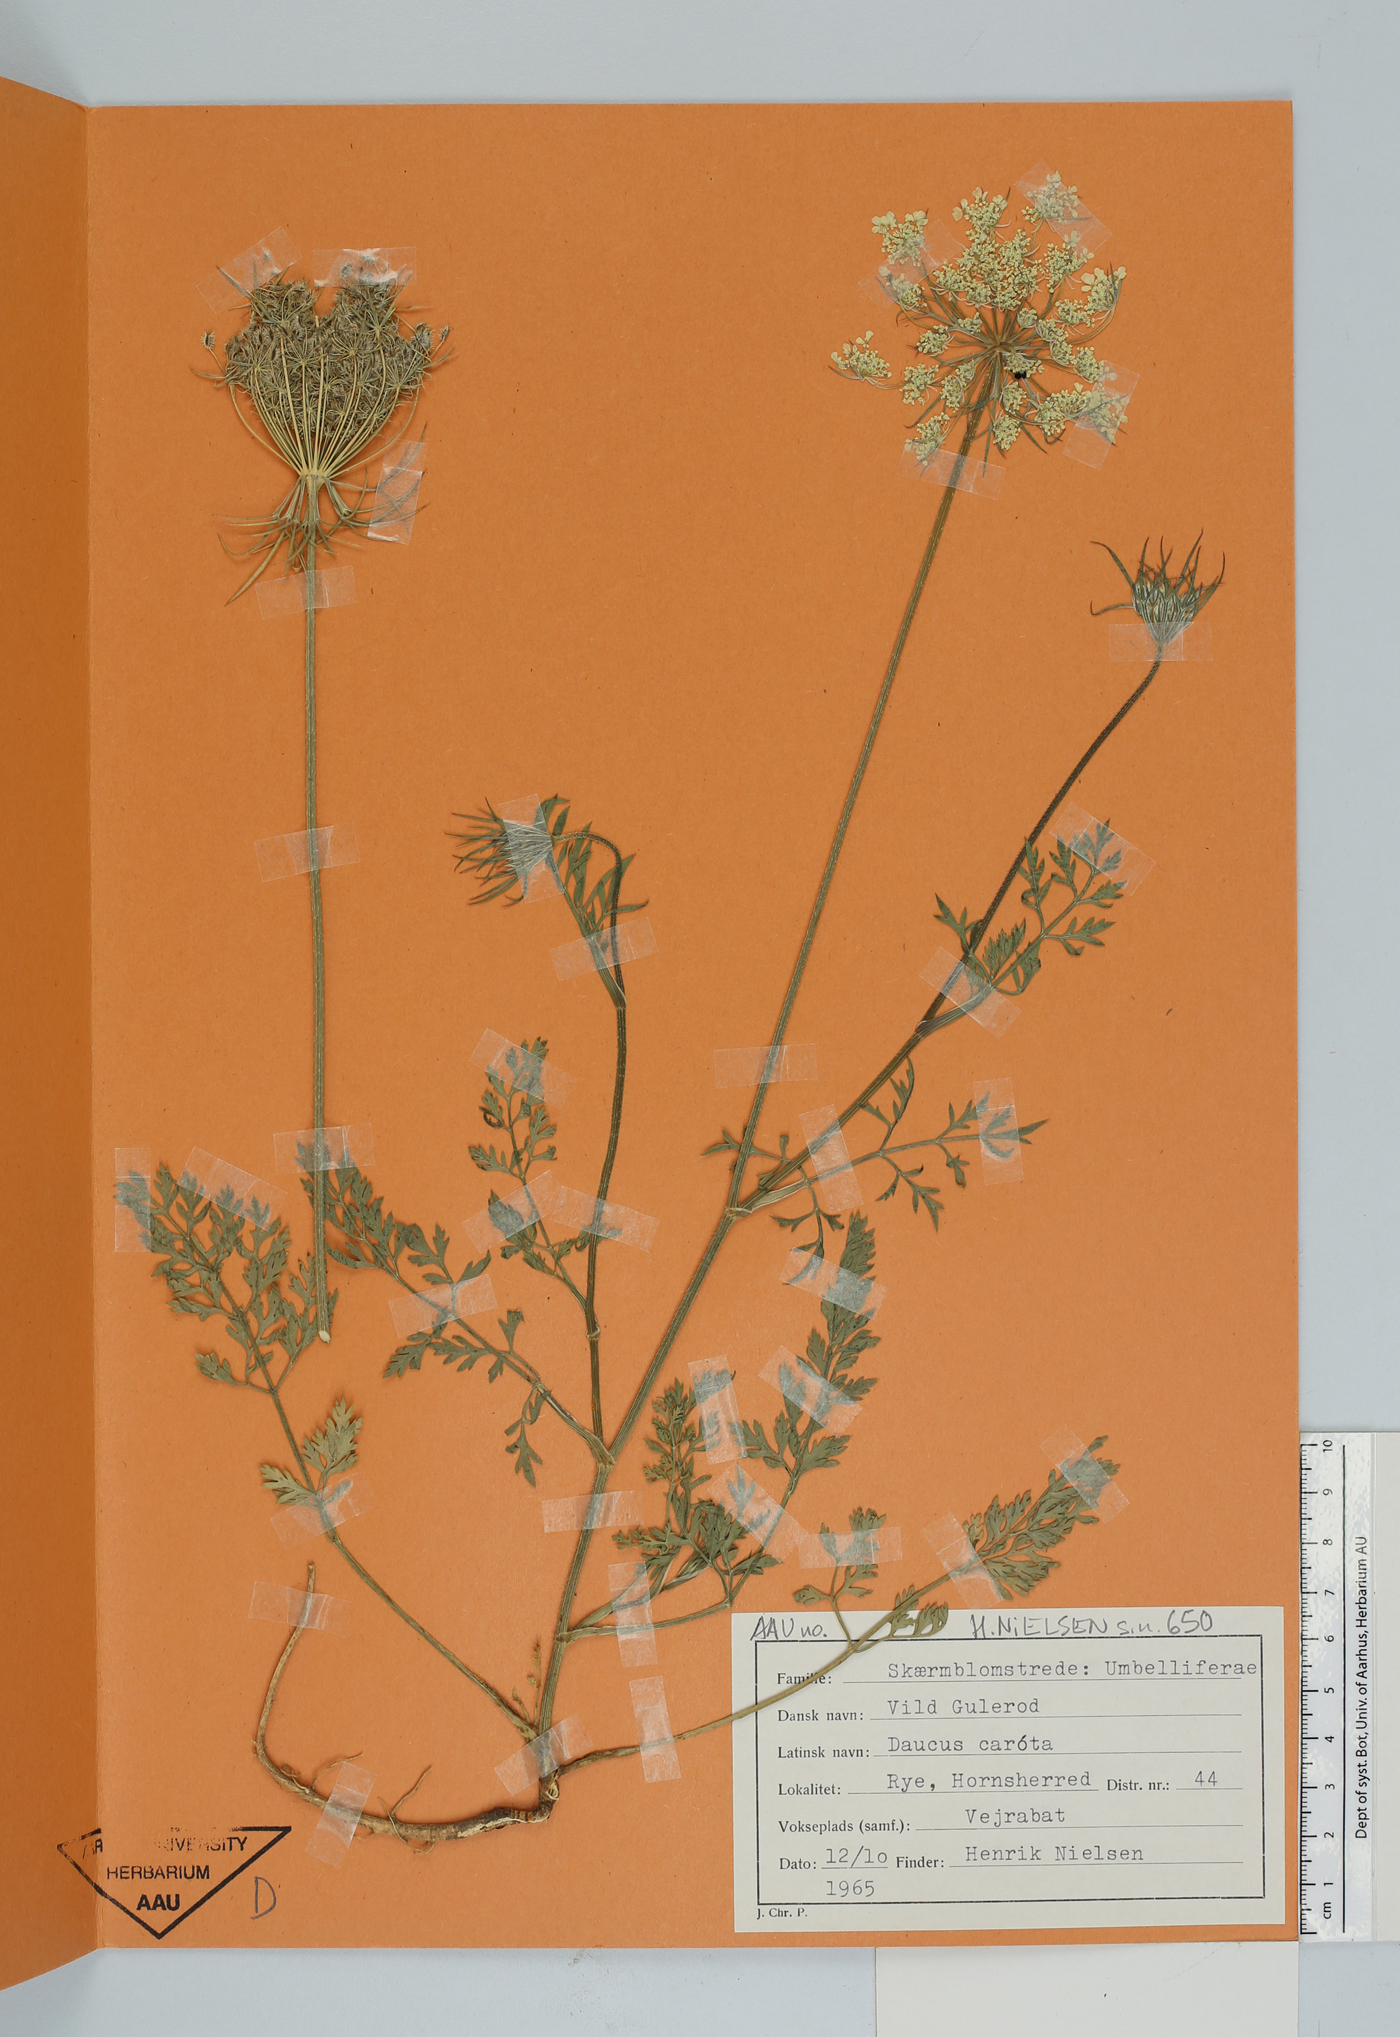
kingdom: Plantae
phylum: Tracheophyta
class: Magnoliopsida
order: Apiales
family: Apiaceae
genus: Daucus
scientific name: Daucus carota
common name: Wild carrot
